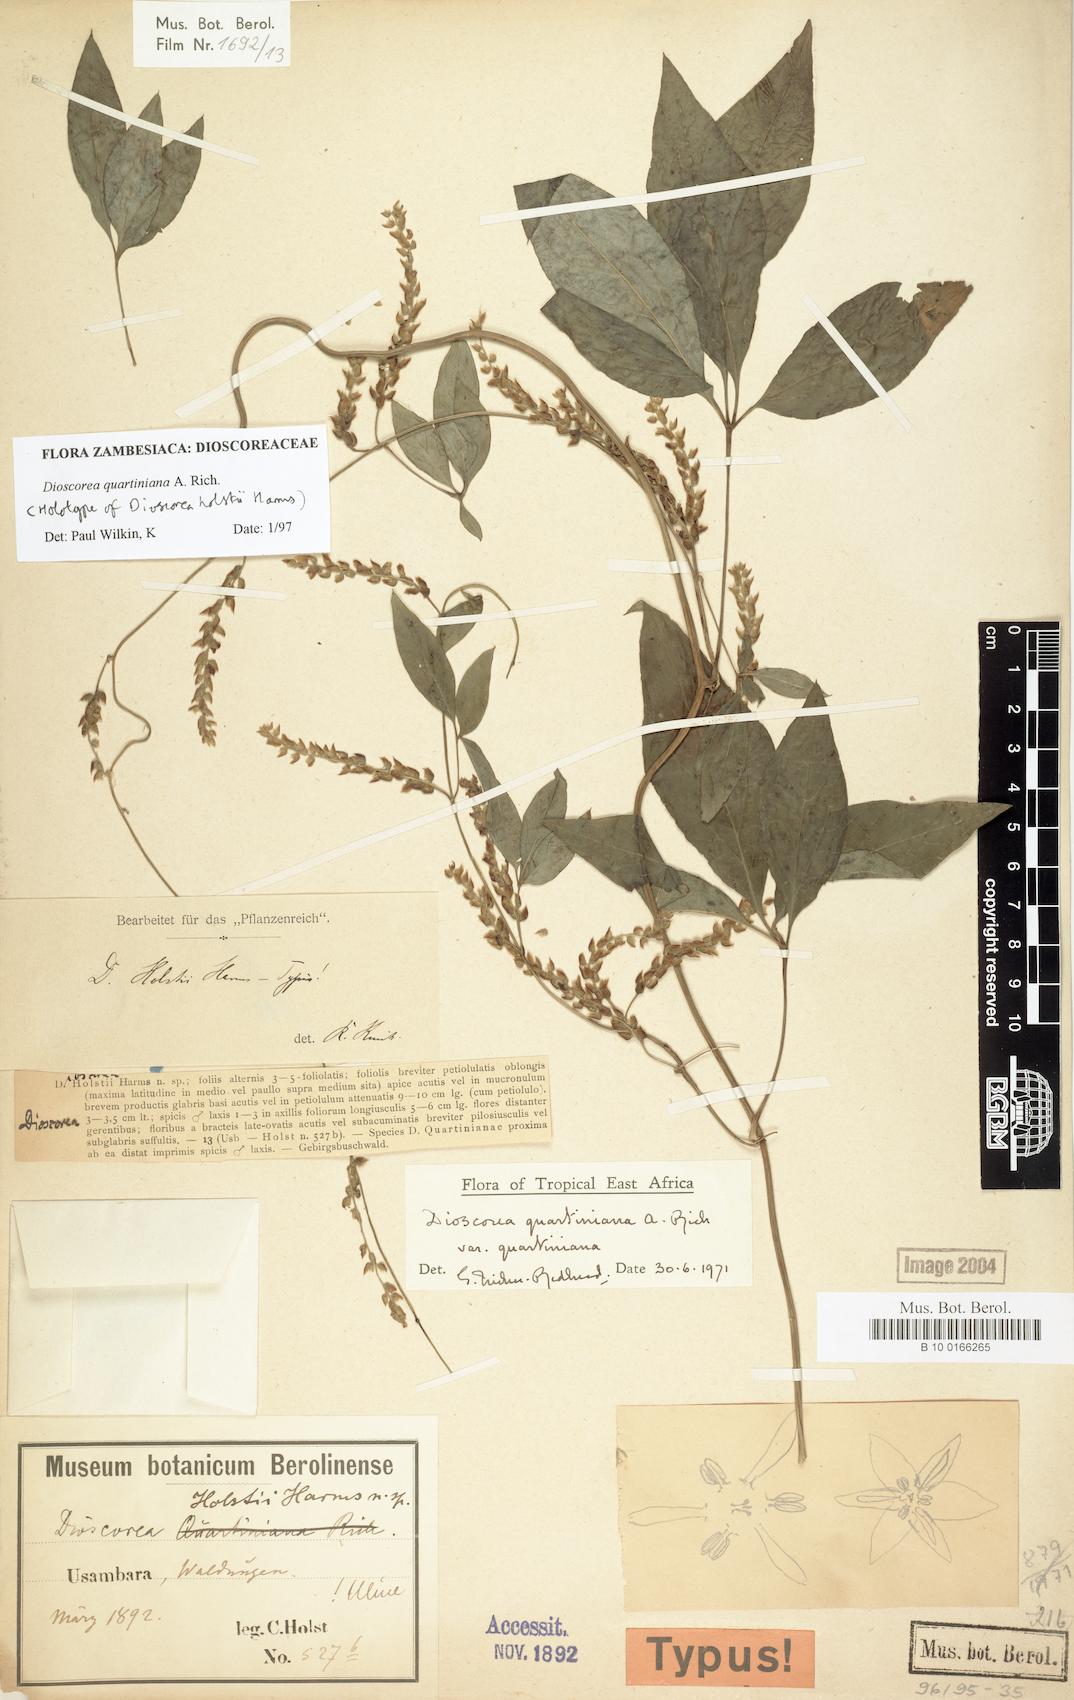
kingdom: Plantae
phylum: Tracheophyta
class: Liliopsida
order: Dioscoreales
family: Dioscoreaceae
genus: Dioscorea
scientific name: Dioscorea quartiniana
